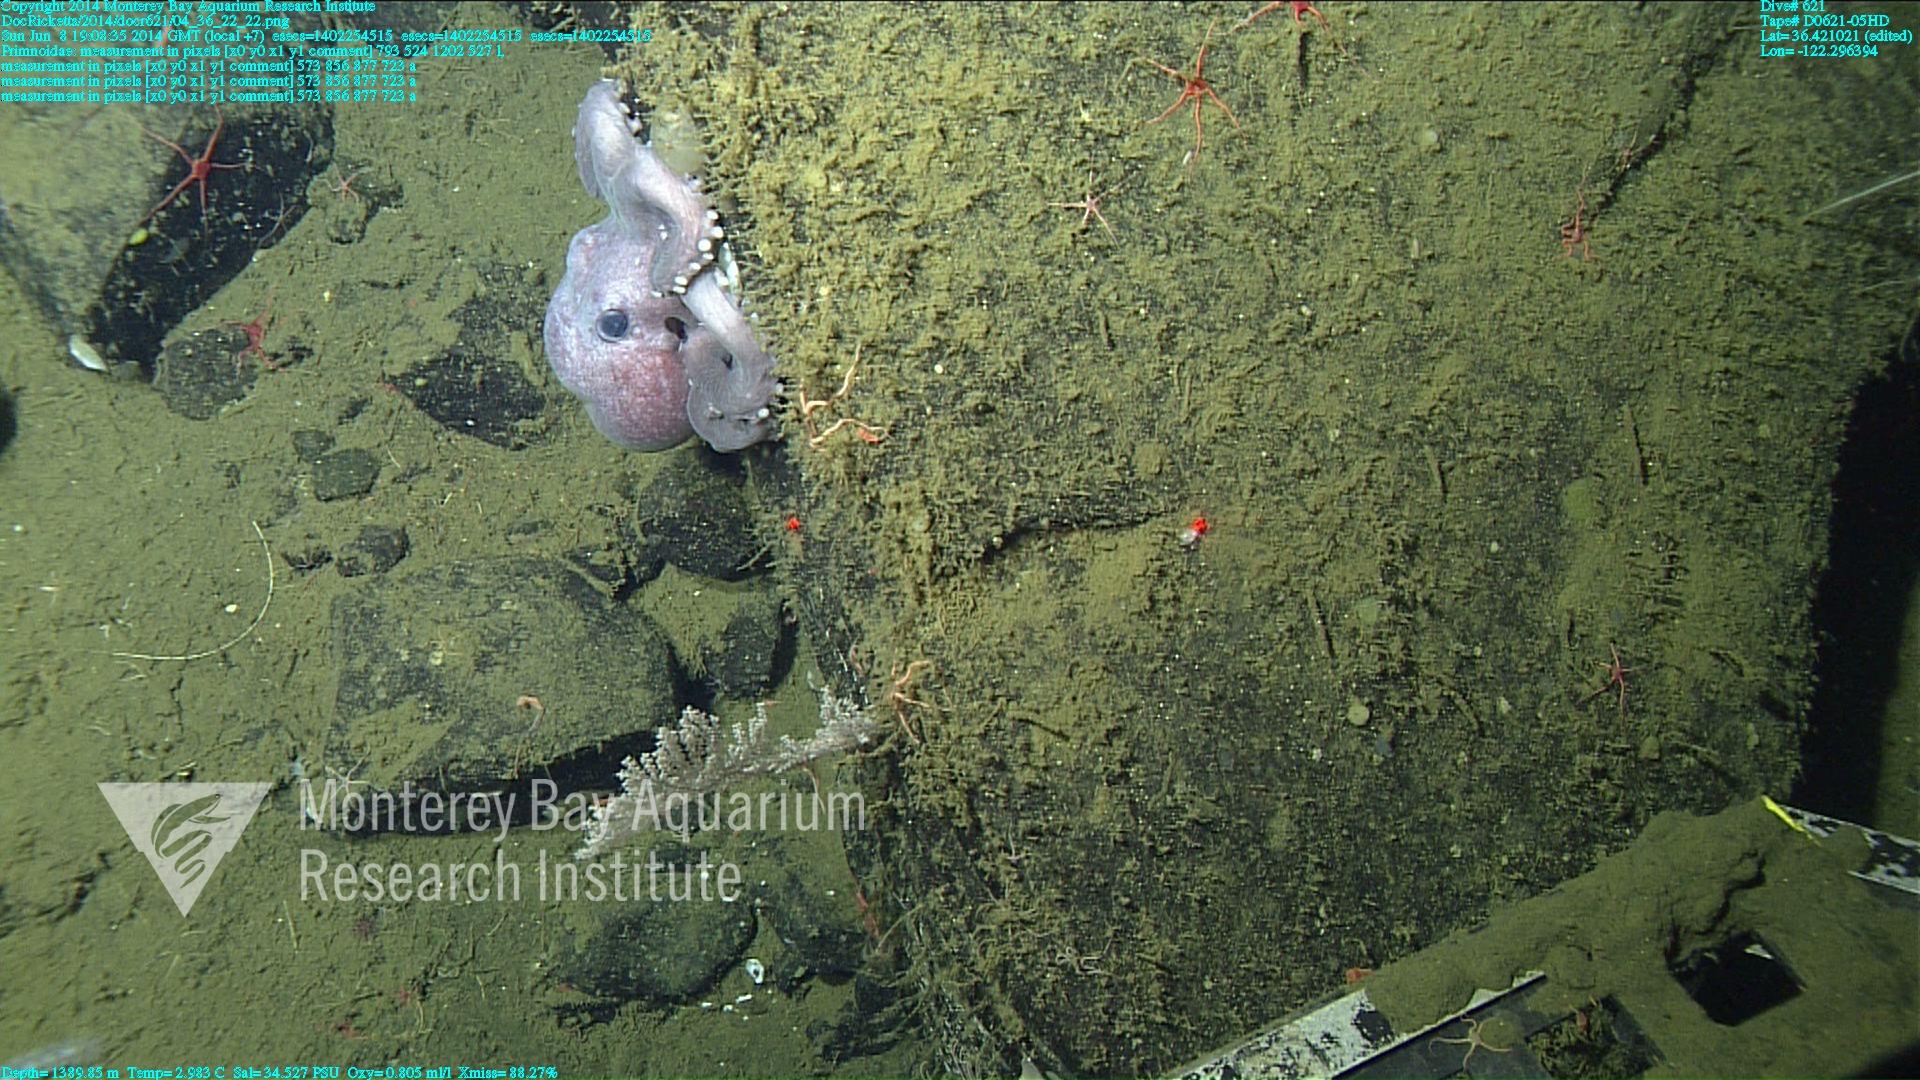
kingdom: Animalia
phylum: Cnidaria
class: Anthozoa
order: Scleralcyonacea
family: Primnoidae
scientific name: Primnoidae
